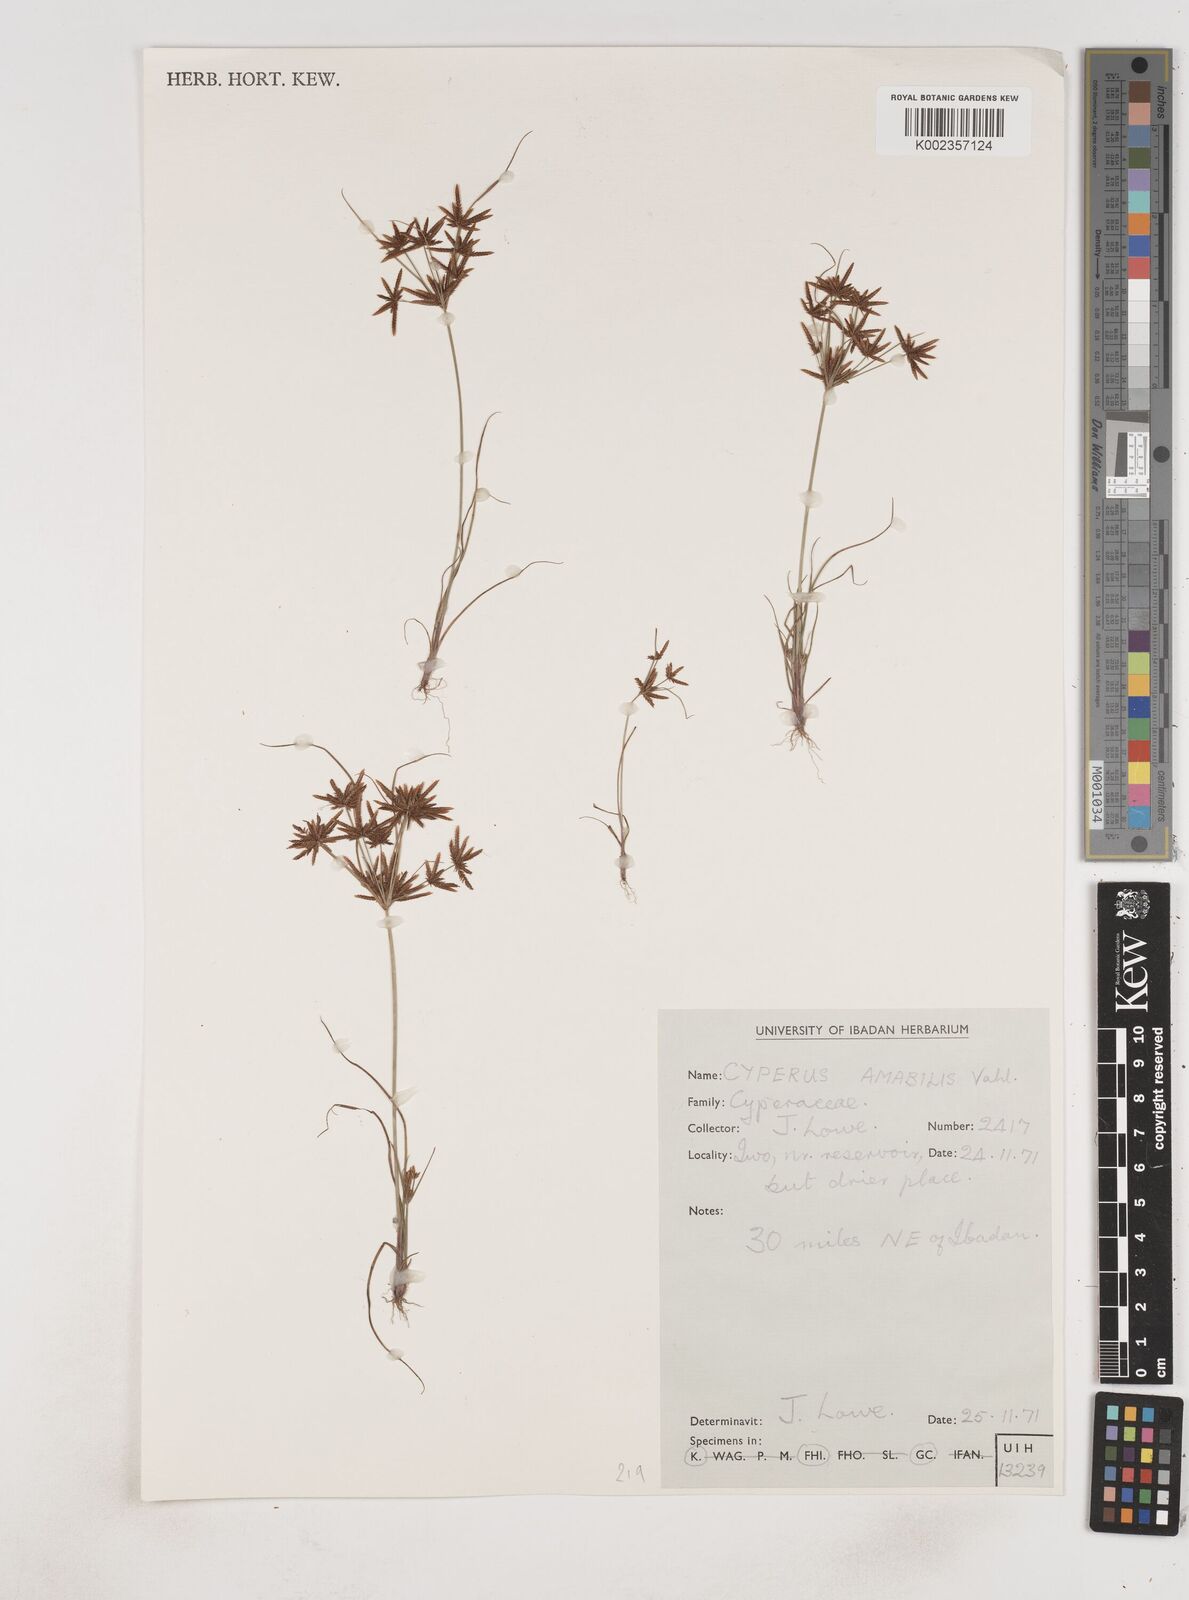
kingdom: Plantae
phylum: Tracheophyta
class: Liliopsida
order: Poales
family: Cyperaceae
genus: Cyperus
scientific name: Cyperus amabilis
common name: Foothill flat sedge
